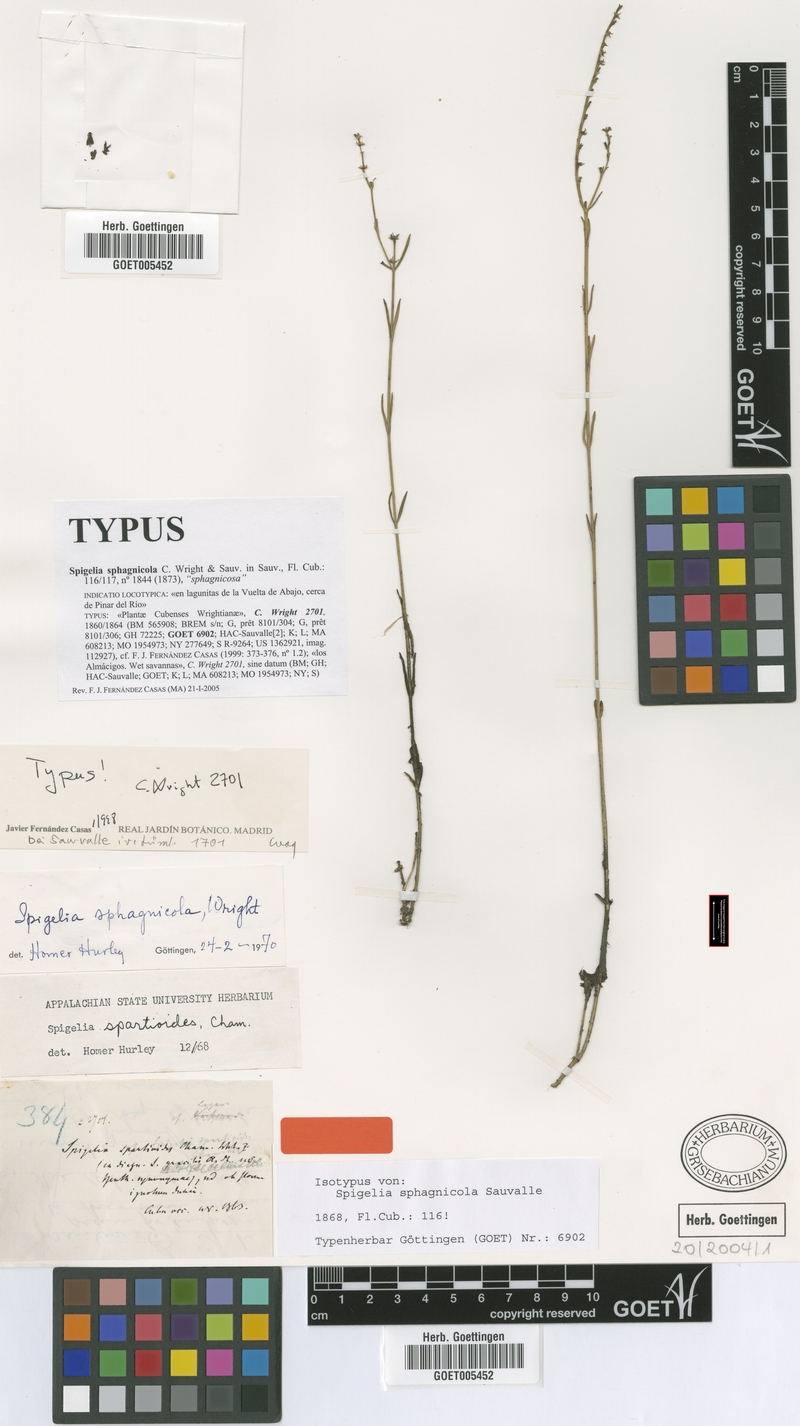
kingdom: Plantae
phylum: Tracheophyta
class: Magnoliopsida
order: Gentianales
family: Loganiaceae
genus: Spigelia
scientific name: Spigelia sphagnicola
